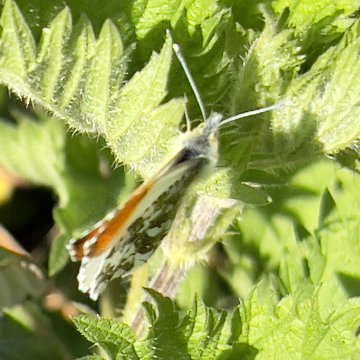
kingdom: Animalia
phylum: Arthropoda
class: Insecta
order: Lepidoptera
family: Pieridae
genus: Anthocharis
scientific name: Anthocharis cardamines
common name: Orange Tip
